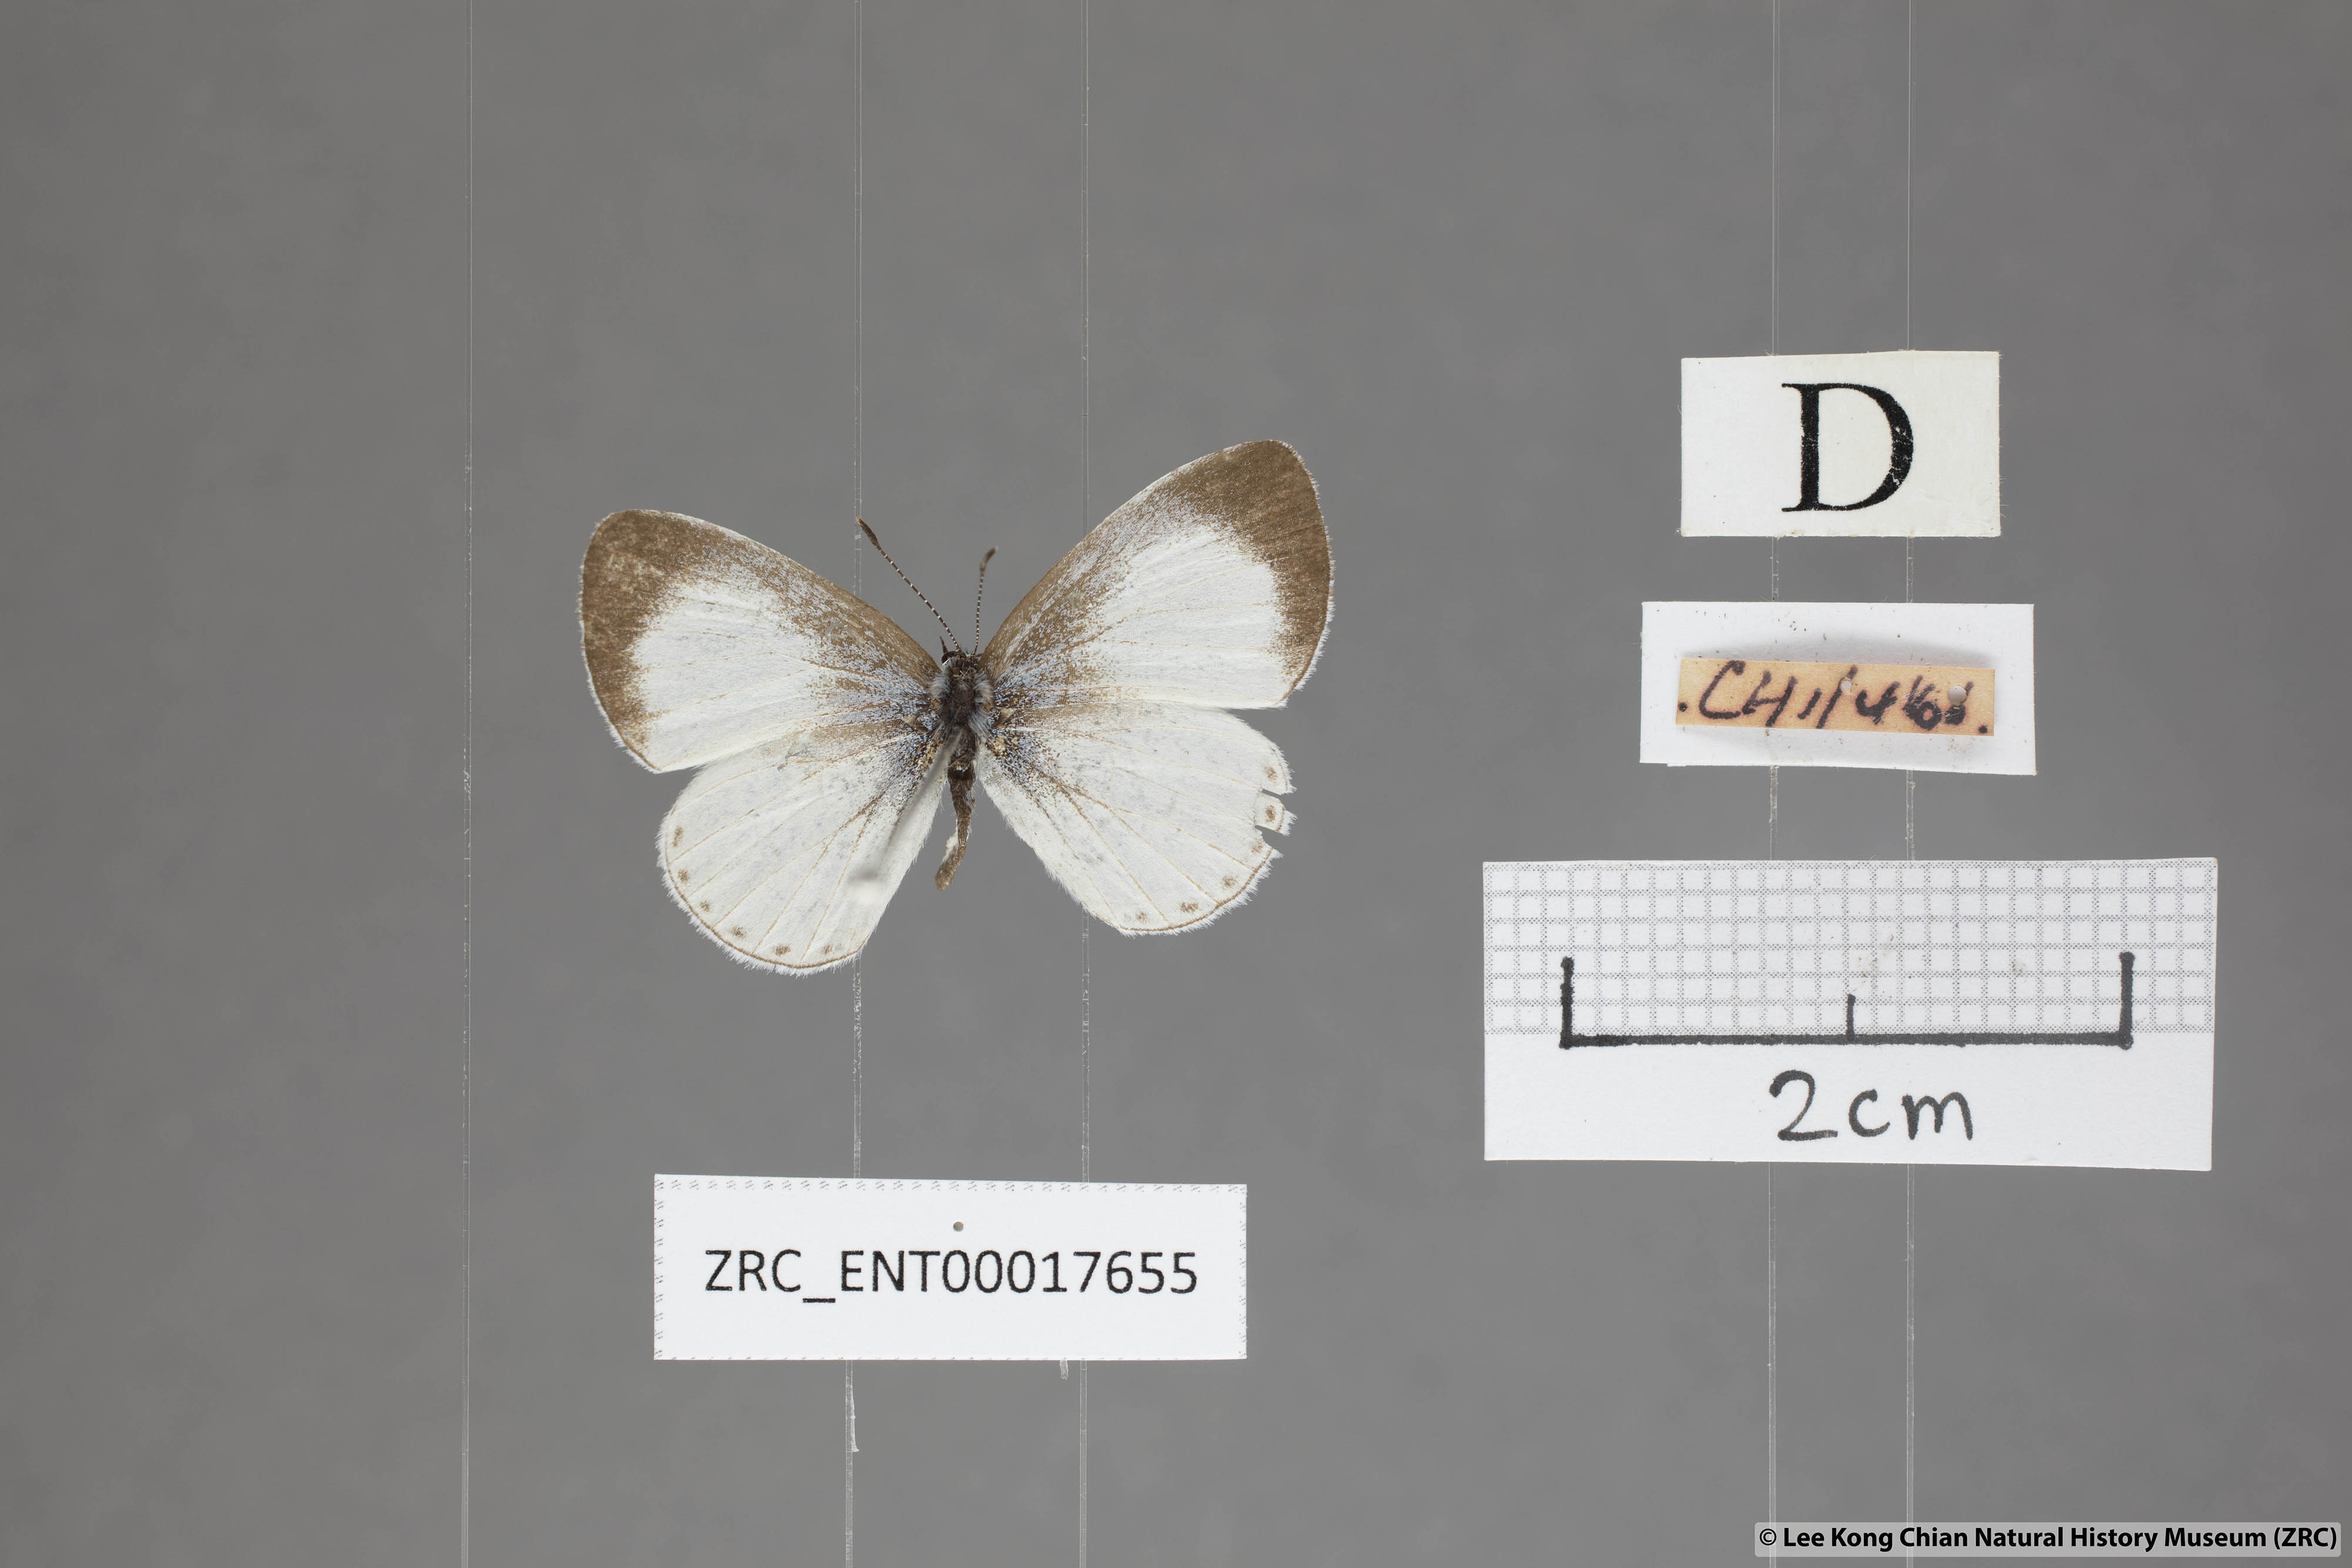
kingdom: Animalia
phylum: Arthropoda
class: Insecta
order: Lepidoptera
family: Lycaenidae
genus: Udara
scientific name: Udara akasa
